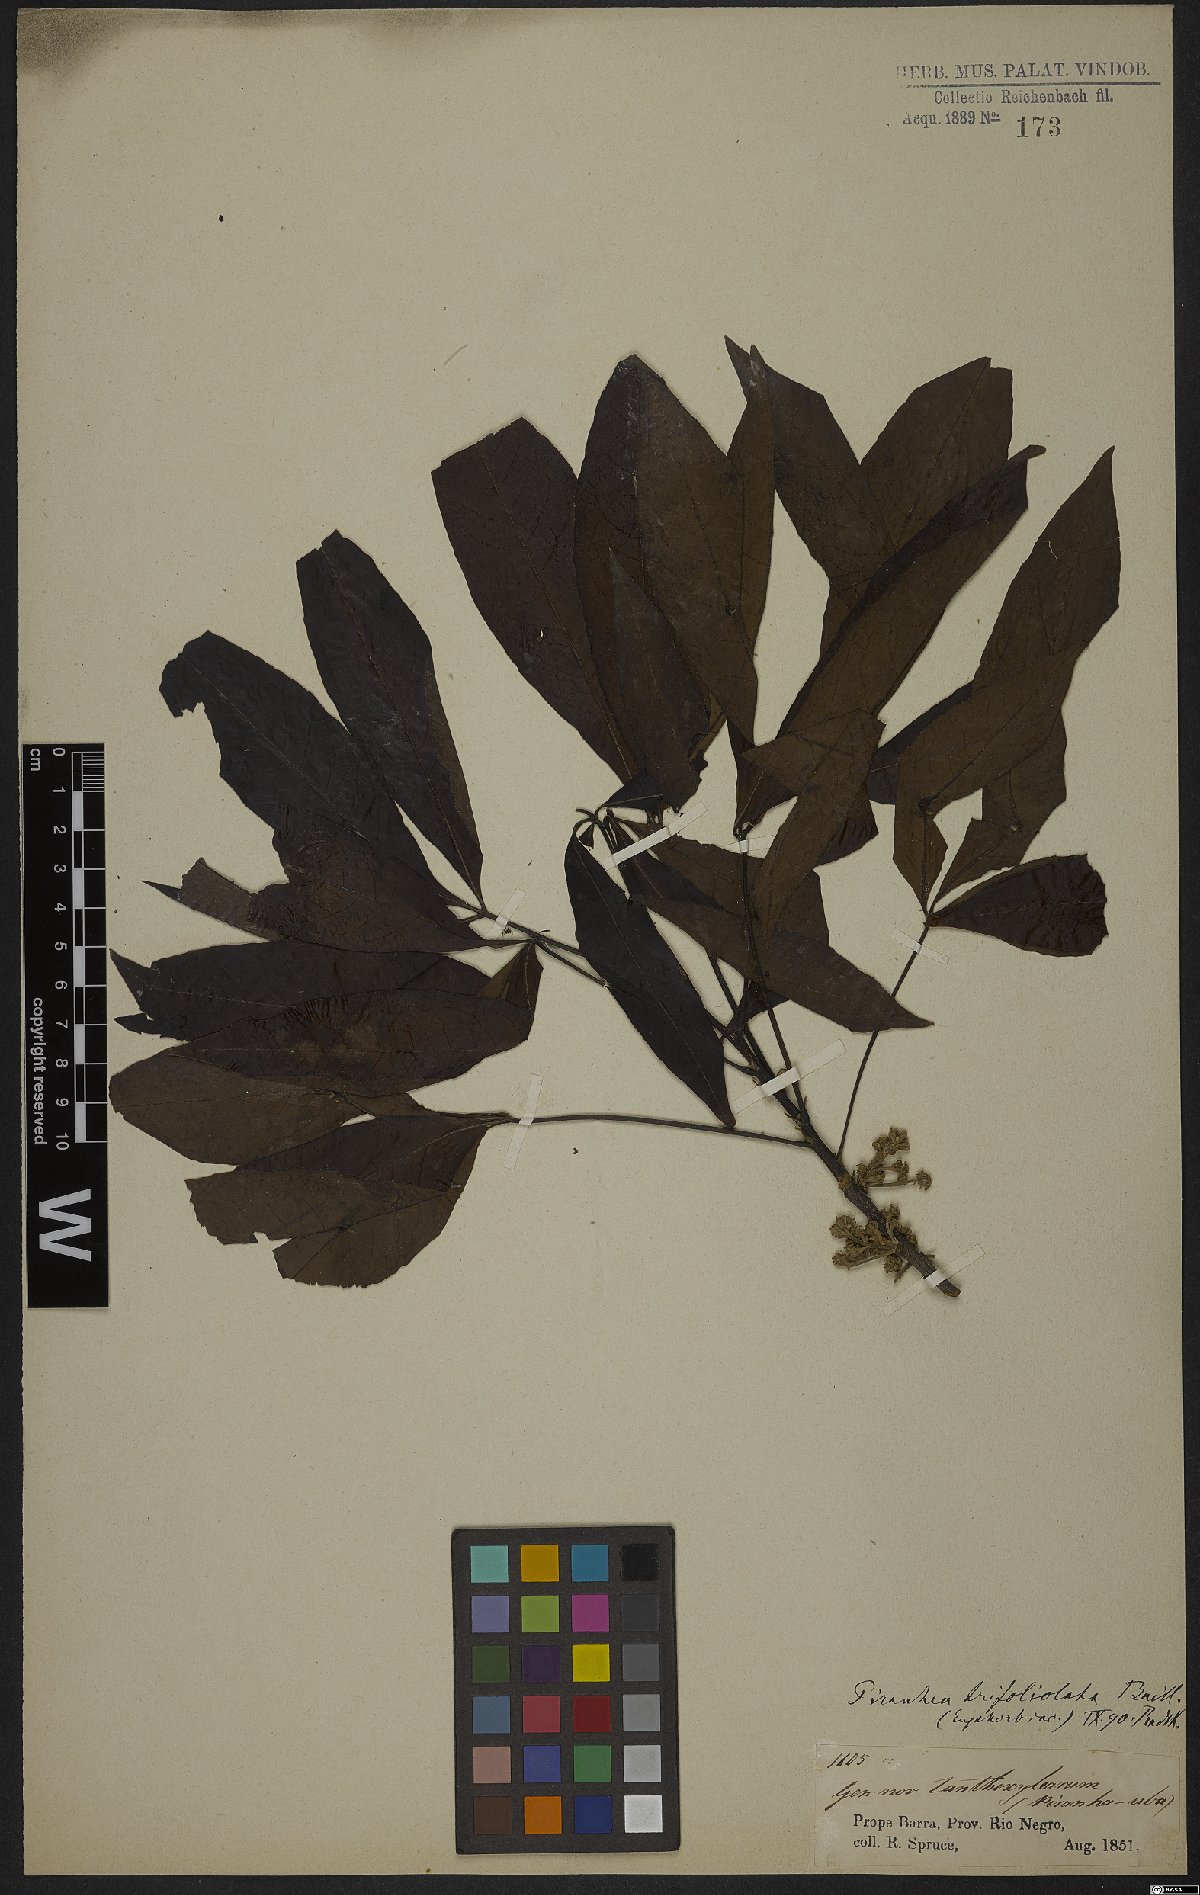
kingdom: Plantae
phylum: Tracheophyta
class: Magnoliopsida
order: Malpighiales
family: Picrodendraceae
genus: Piranhea
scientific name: Piranhea trifoliata
